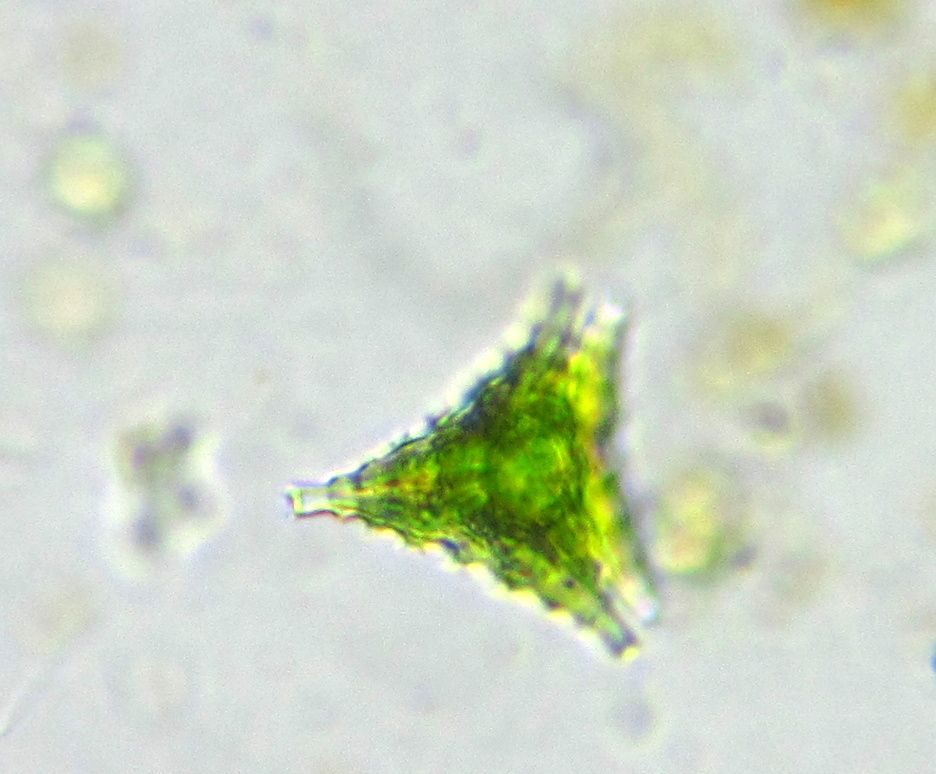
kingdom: Plantae
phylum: Charophyta
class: Conjugatophyceae
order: Desmidiales
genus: Staurastrum
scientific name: Staurastrum cingulum
